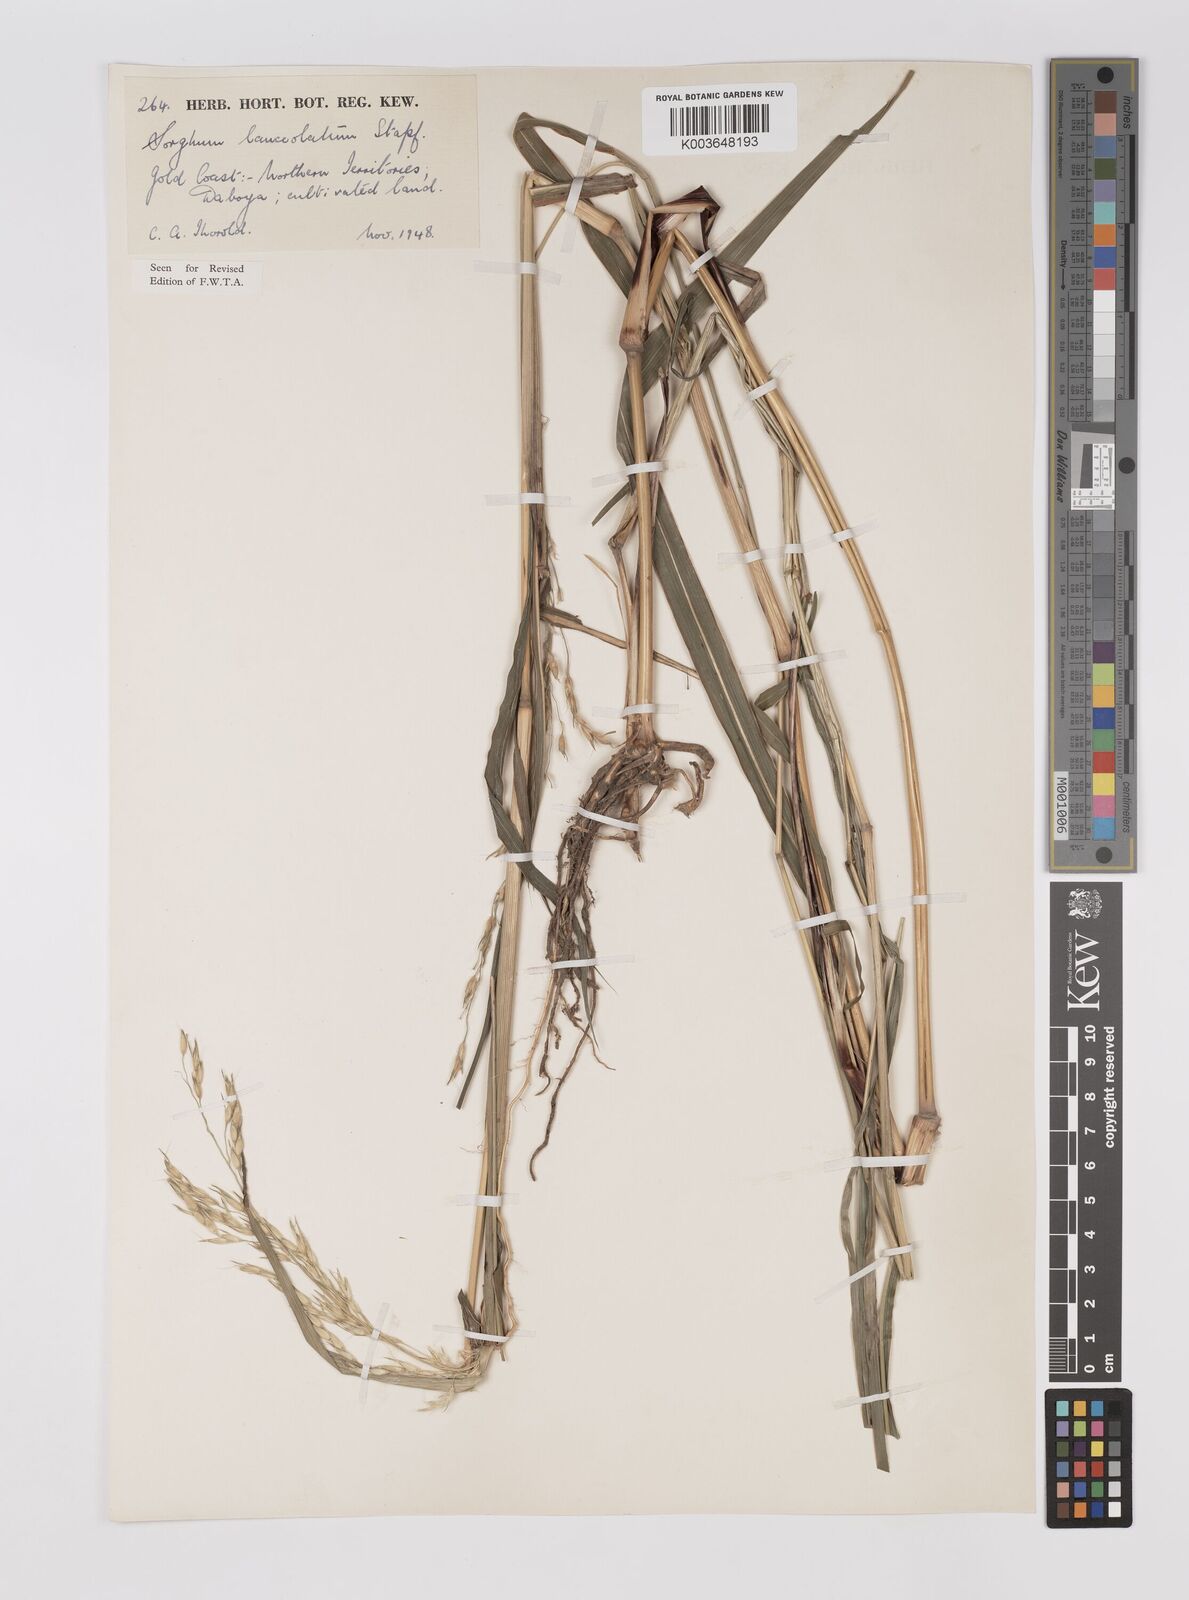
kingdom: Plantae
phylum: Tracheophyta
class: Liliopsida
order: Poales
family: Poaceae
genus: Sorghum
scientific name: Sorghum arundinaceum
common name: Sorghum
